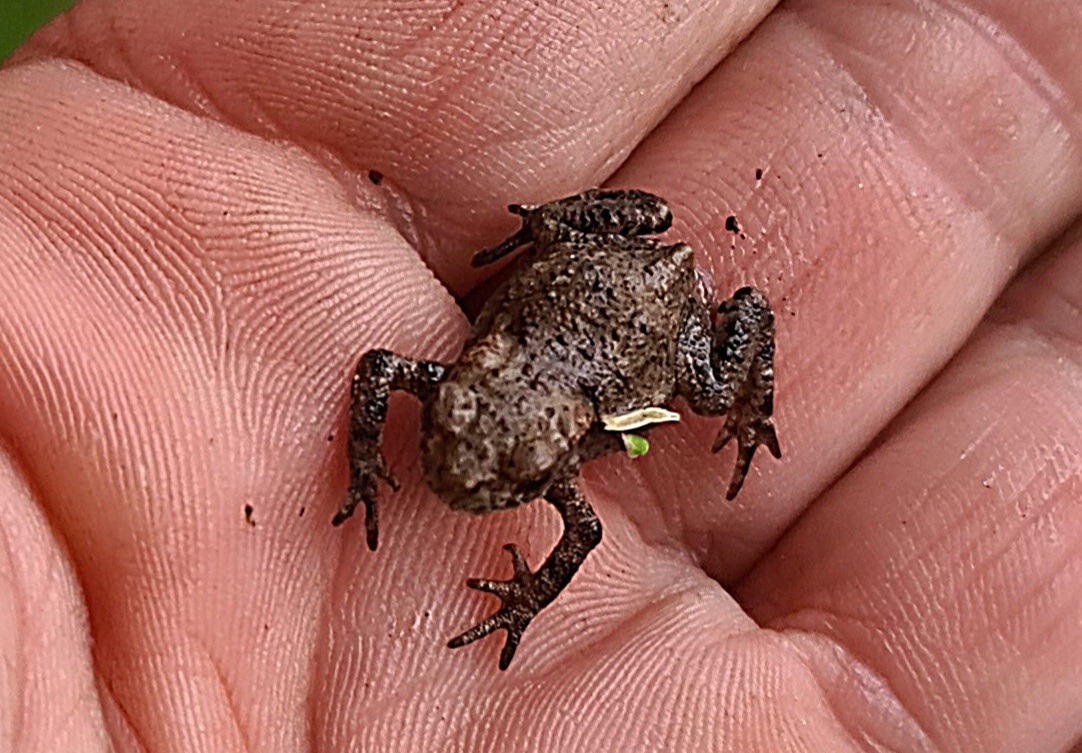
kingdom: Animalia
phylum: Chordata
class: Amphibia
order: Anura
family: Bufonidae
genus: Bufo
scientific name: Bufo bufo
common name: Skrubtudse
